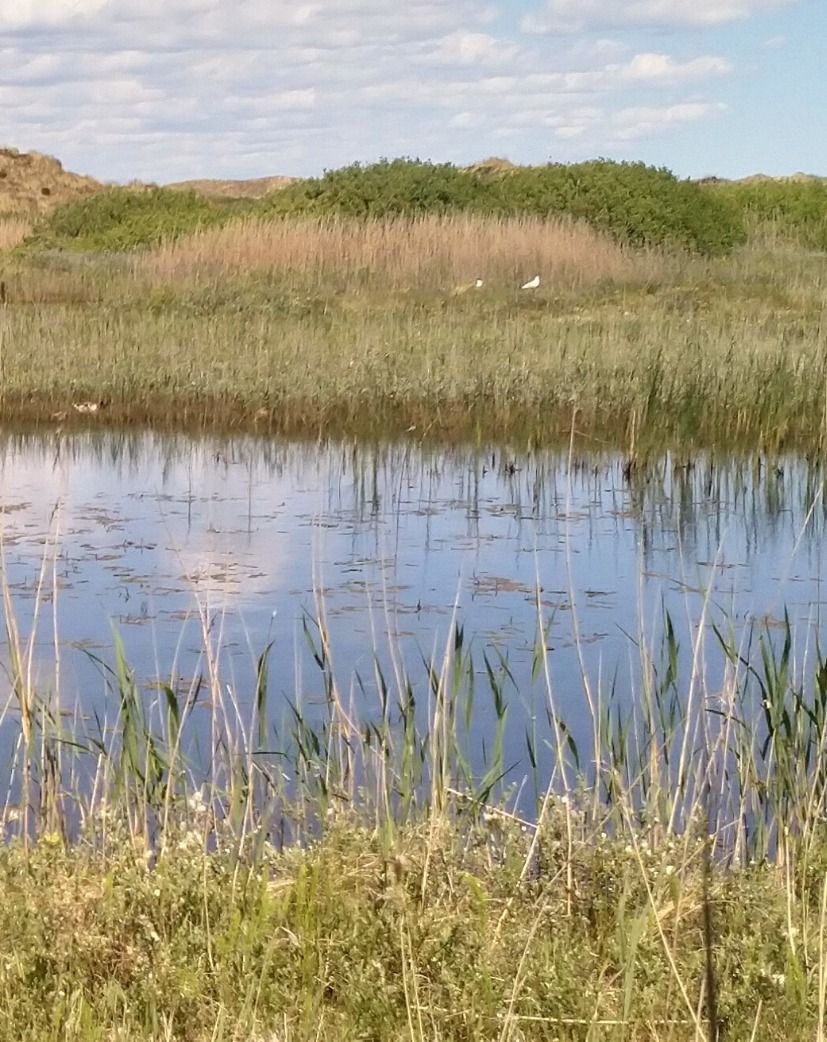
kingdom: Animalia
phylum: Chordata
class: Aves
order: Charadriiformes
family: Laridae
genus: Chroicocephalus
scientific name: Chroicocephalus ridibundus
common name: Hættemåge
